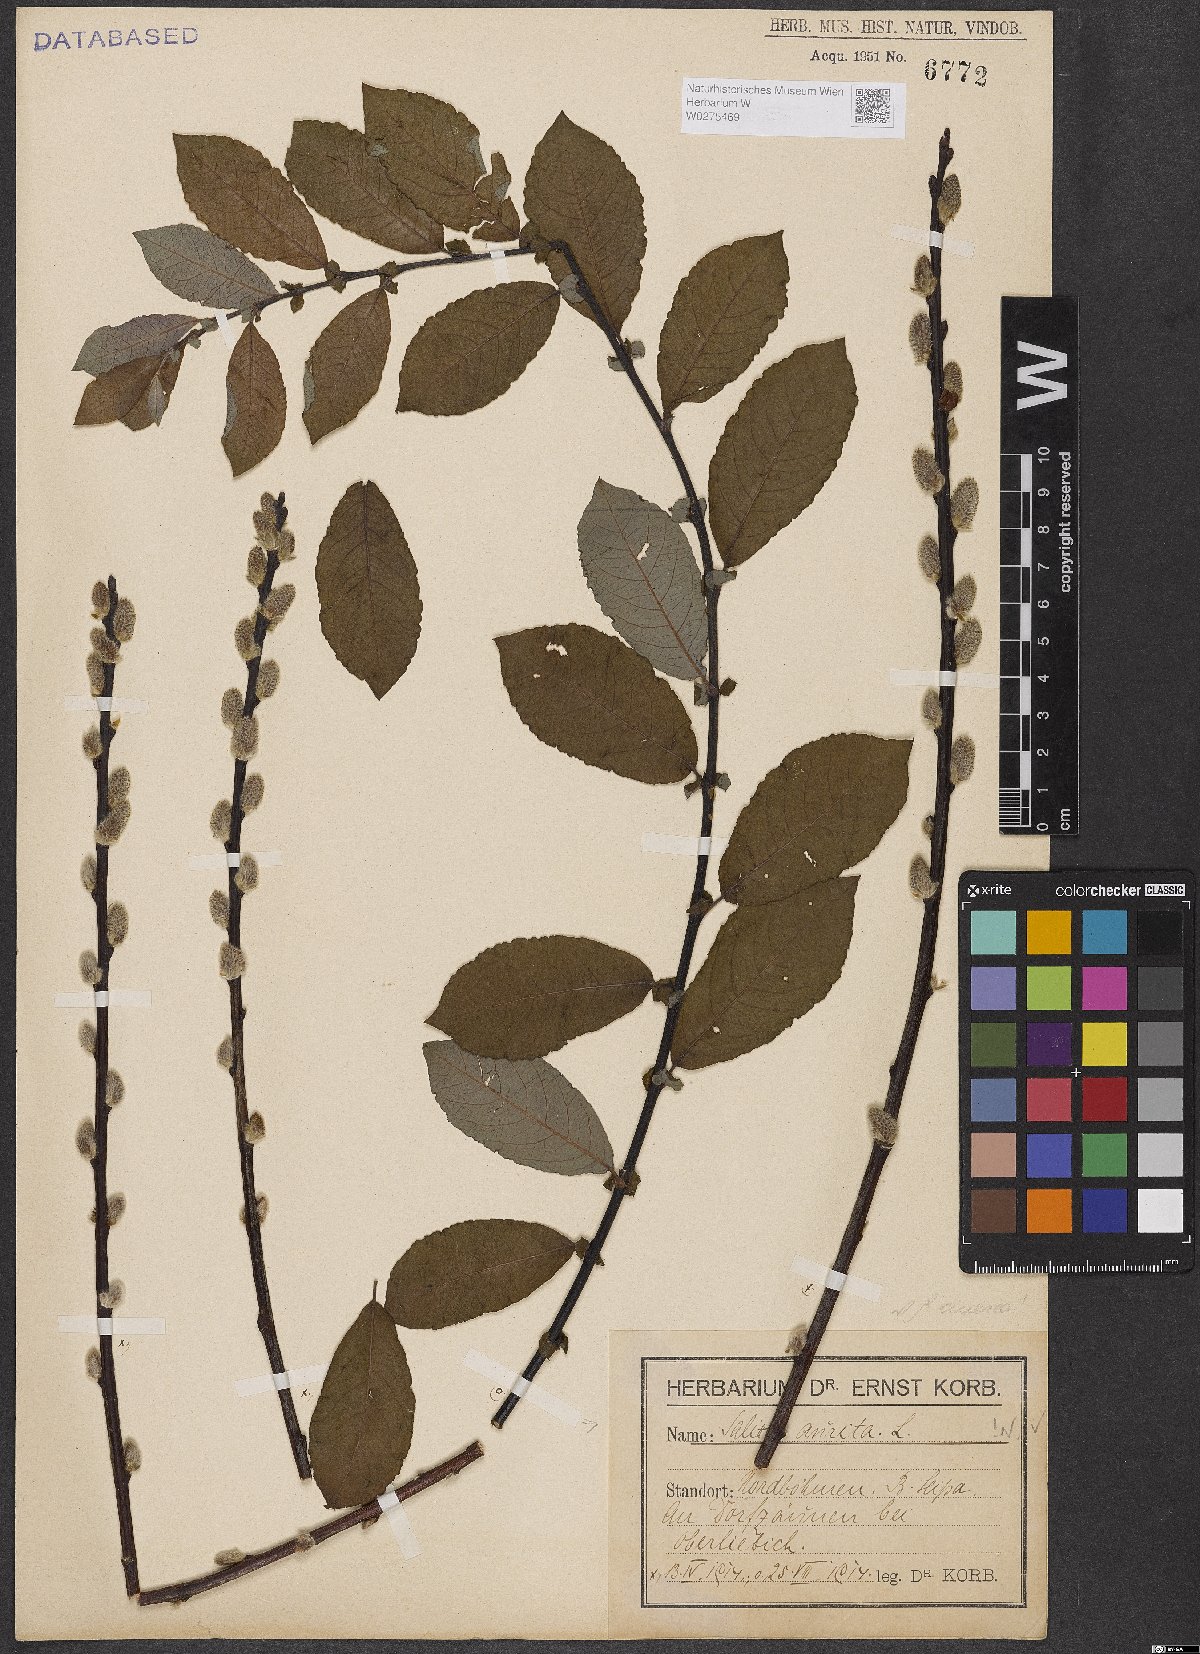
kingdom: Plantae
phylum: Tracheophyta
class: Magnoliopsida
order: Malpighiales
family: Salicaceae
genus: Salix
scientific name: Salix aurita
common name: Eared willow
